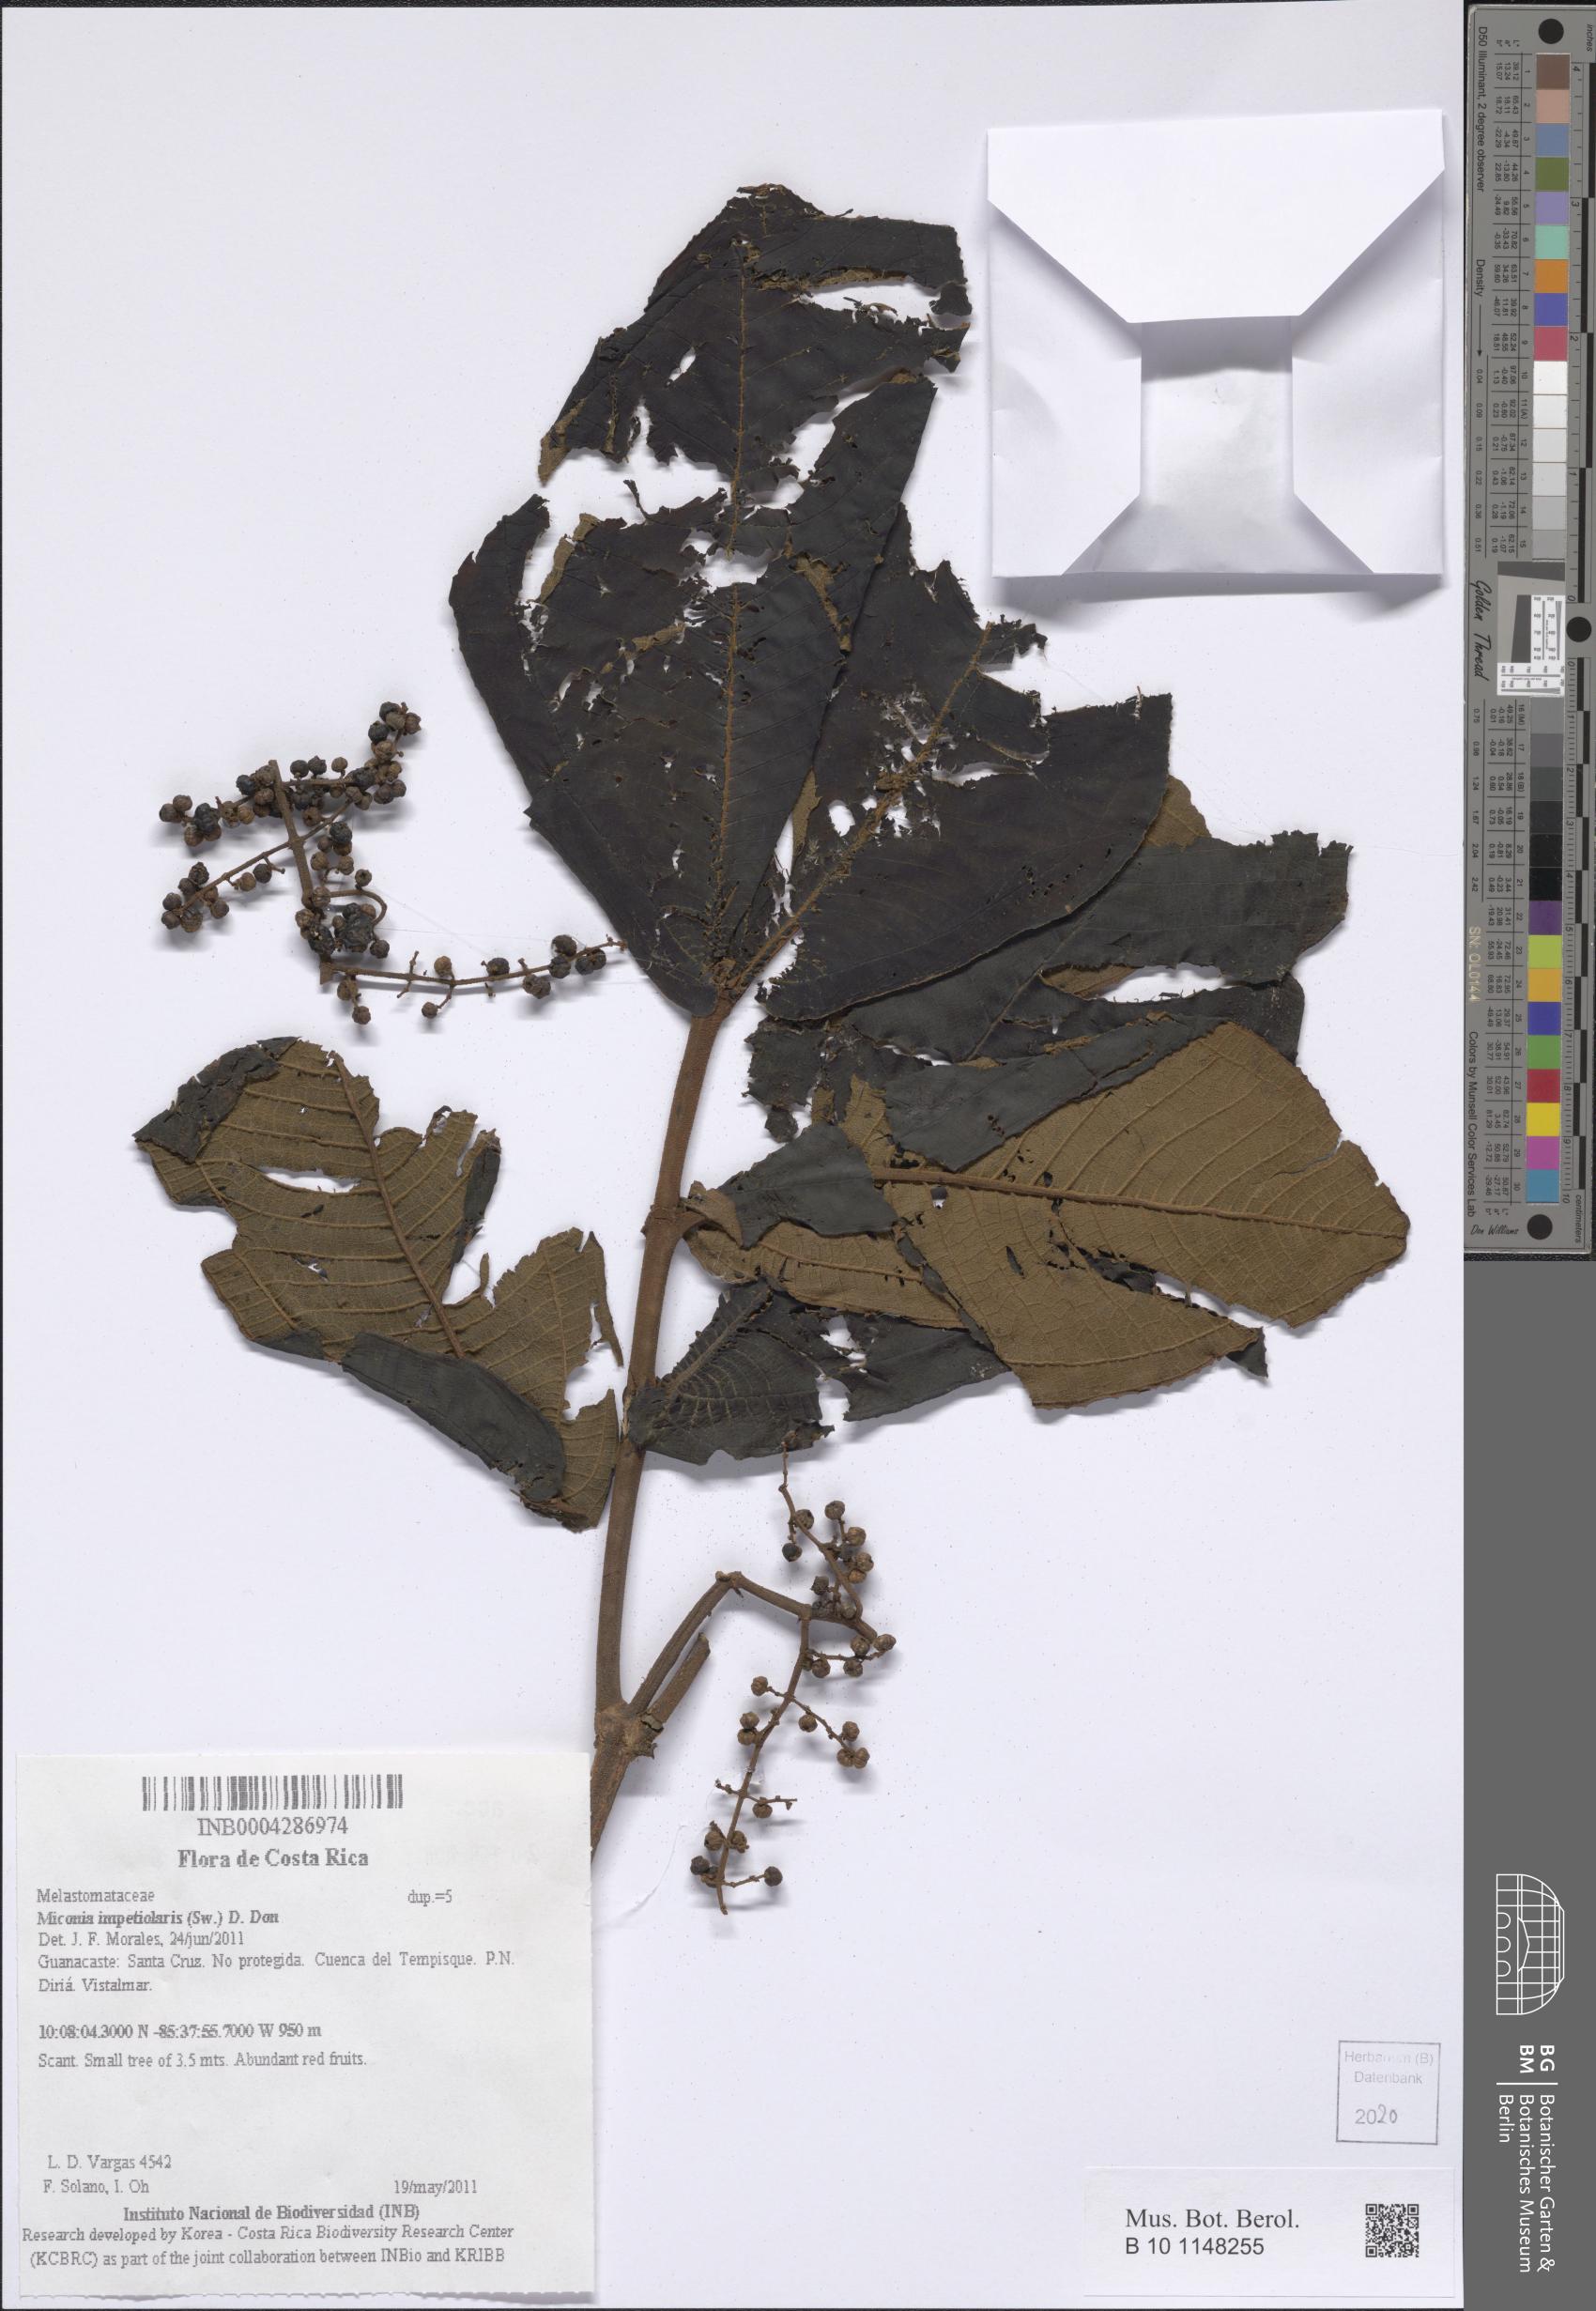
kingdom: Plantae
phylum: Tracheophyta
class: Magnoliopsida
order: Myrtales
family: Melastomataceae
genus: Miconia
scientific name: Miconia impetiolaris
